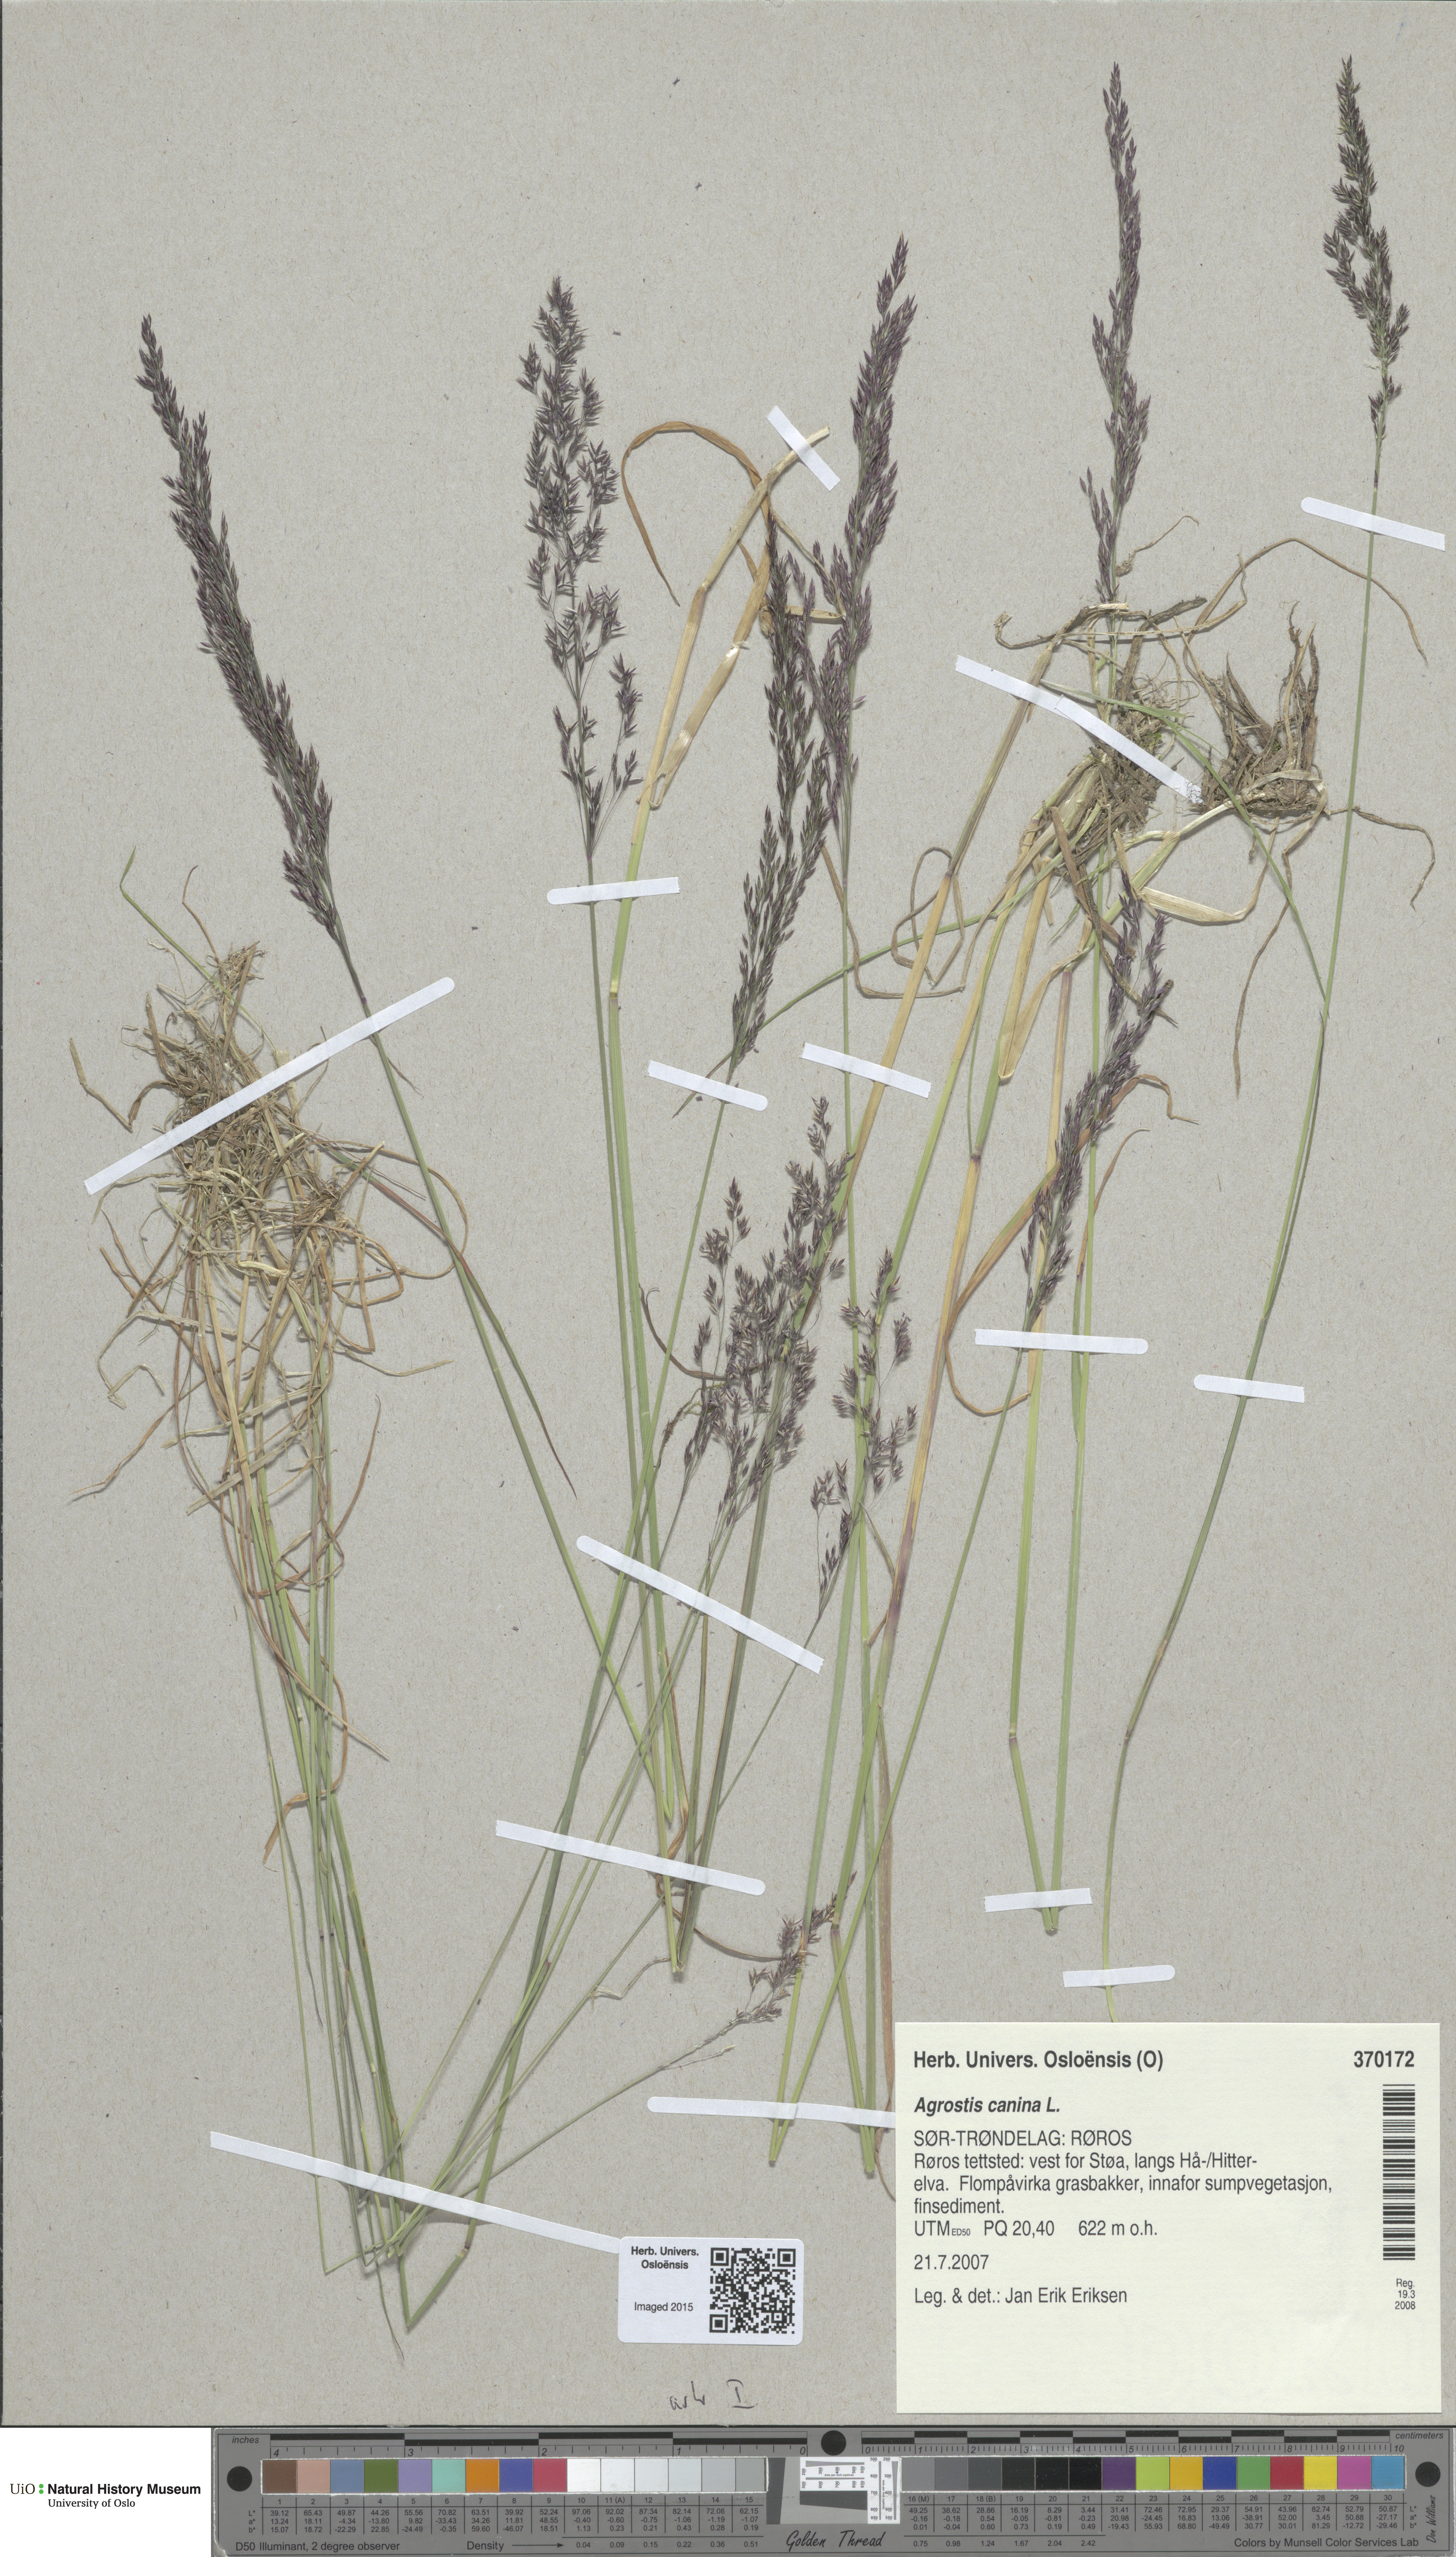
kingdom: Plantae
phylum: Tracheophyta
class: Liliopsida
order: Poales
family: Poaceae
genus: Agrostis
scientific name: Agrostis canina
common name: Velvet bent
